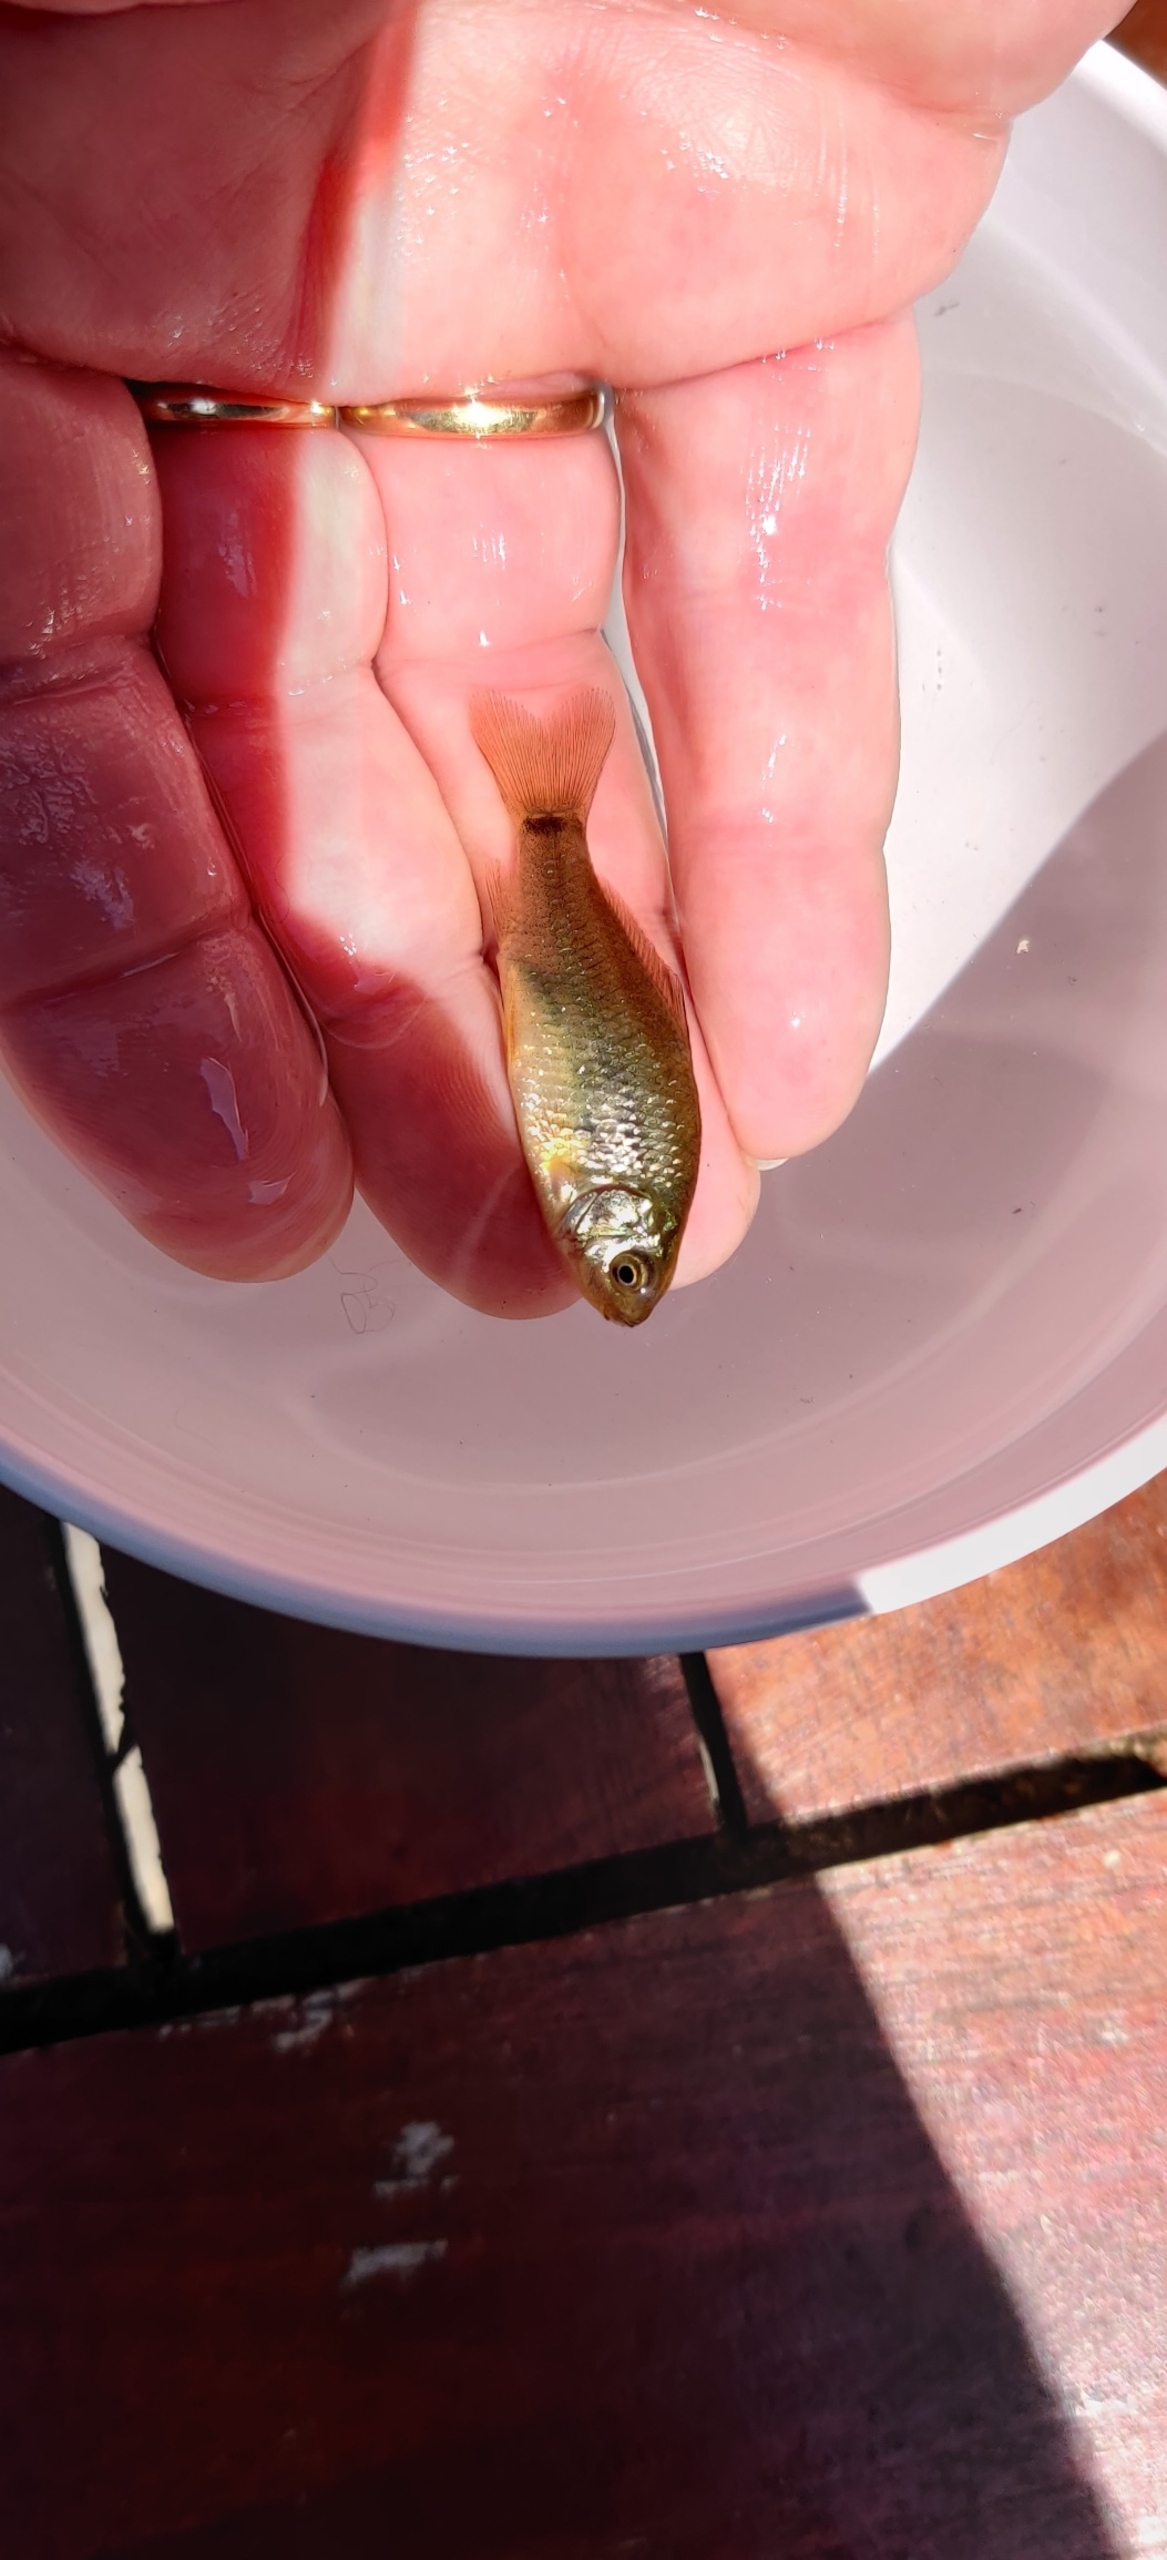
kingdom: Animalia
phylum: Chordata
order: Cypriniformes
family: Cyprinidae
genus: Carassius
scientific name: Carassius carassius
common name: Karusse
